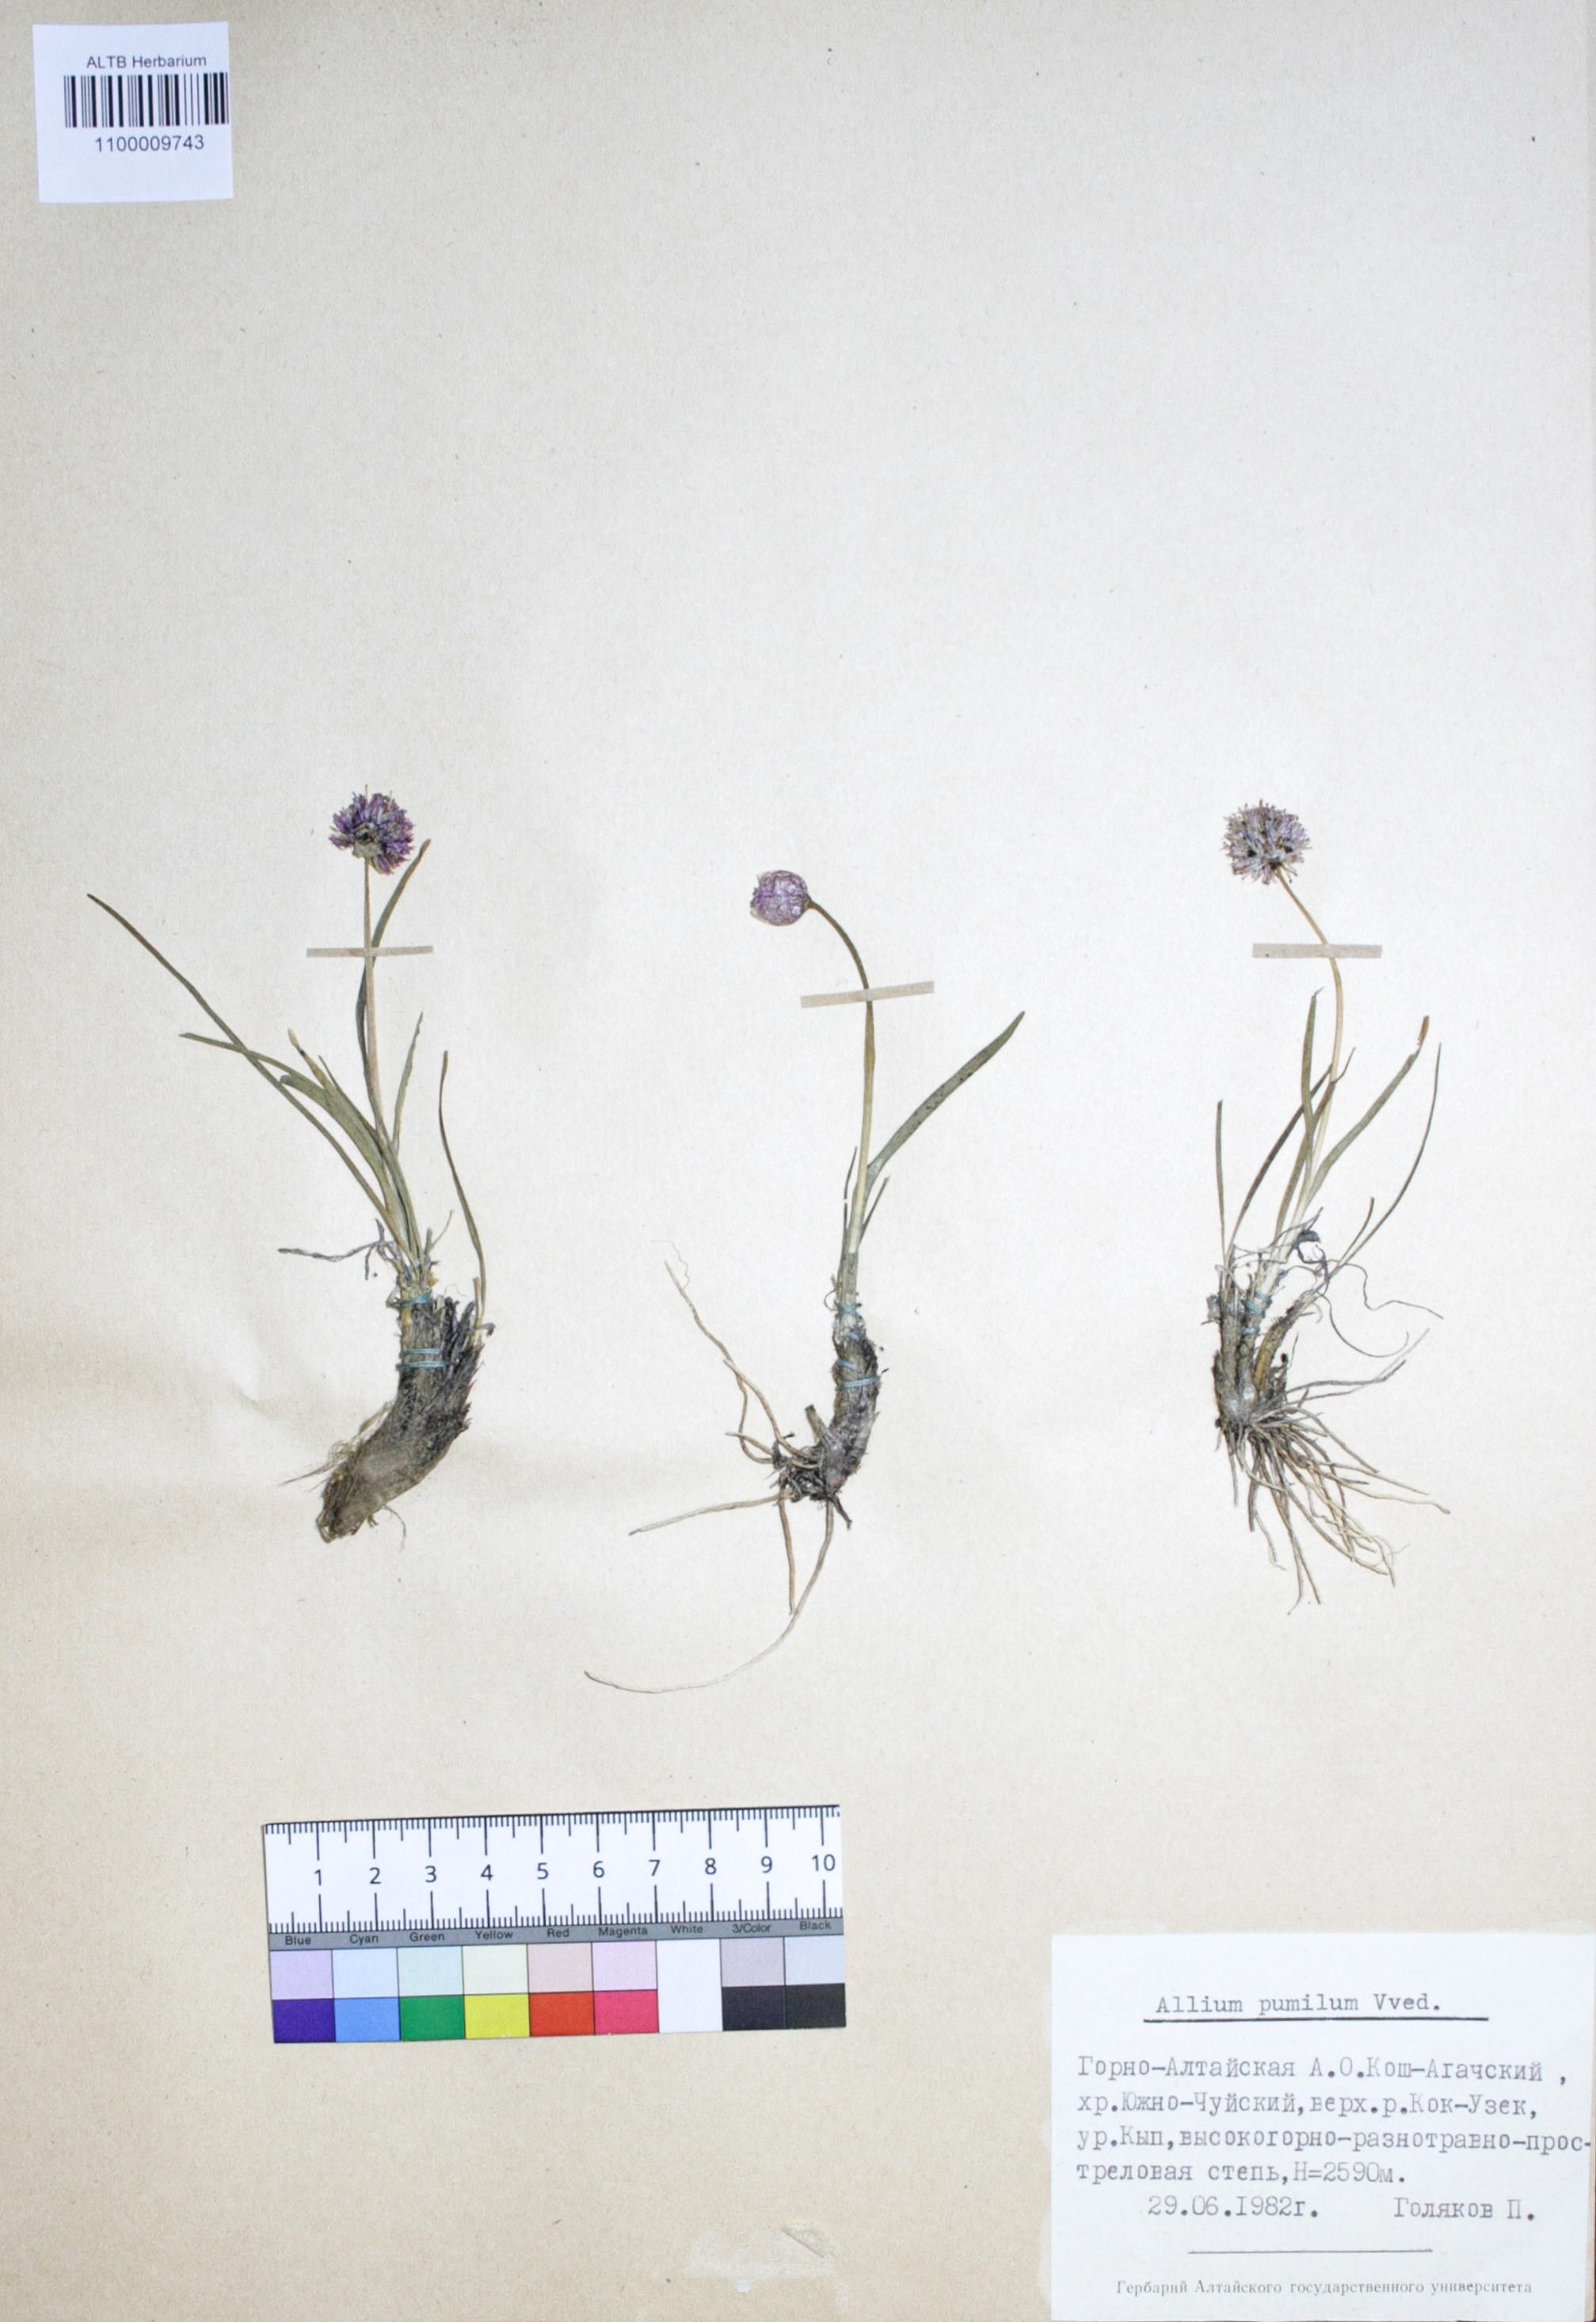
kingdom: Plantae
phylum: Tracheophyta
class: Liliopsida
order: Asparagales
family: Amaryllidaceae
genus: Allium
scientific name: Allium pumilum
